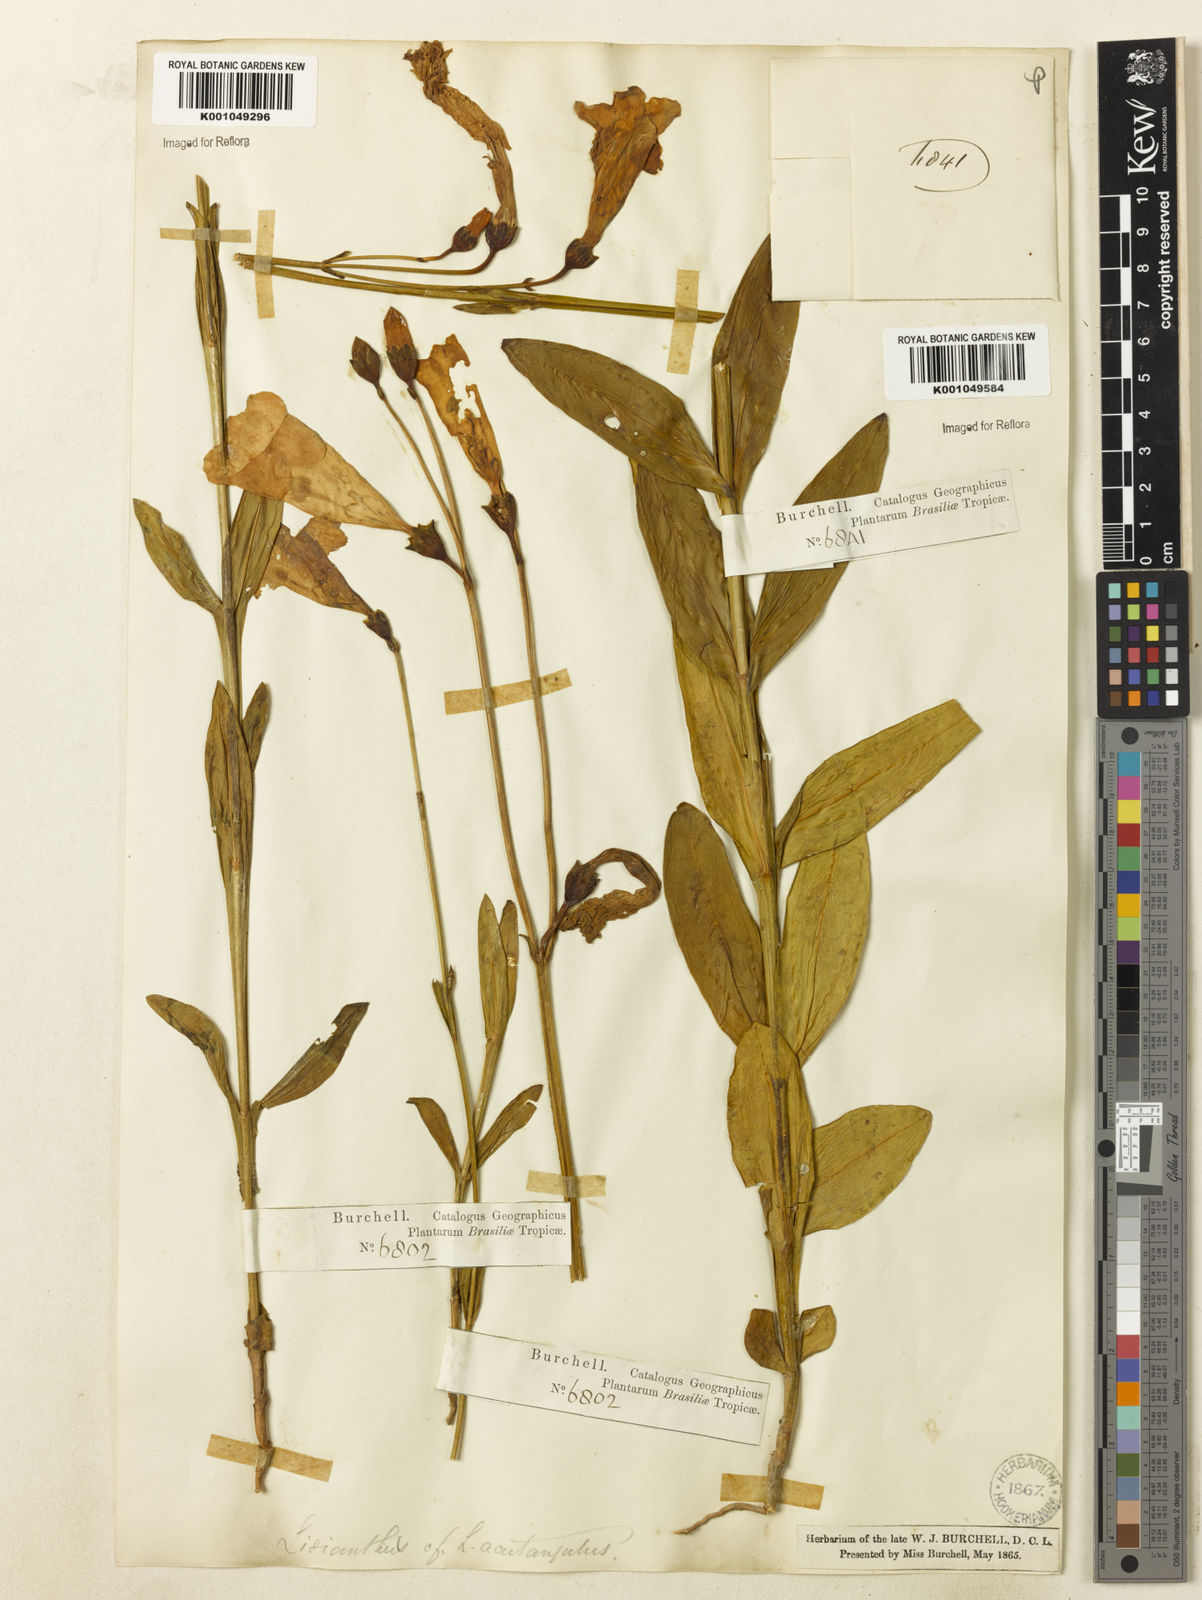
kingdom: Plantae
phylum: Tracheophyta
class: Magnoliopsida
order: Gentianales
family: Gentianaceae
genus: Lisianthius
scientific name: Lisianthius tetragonoalatus
